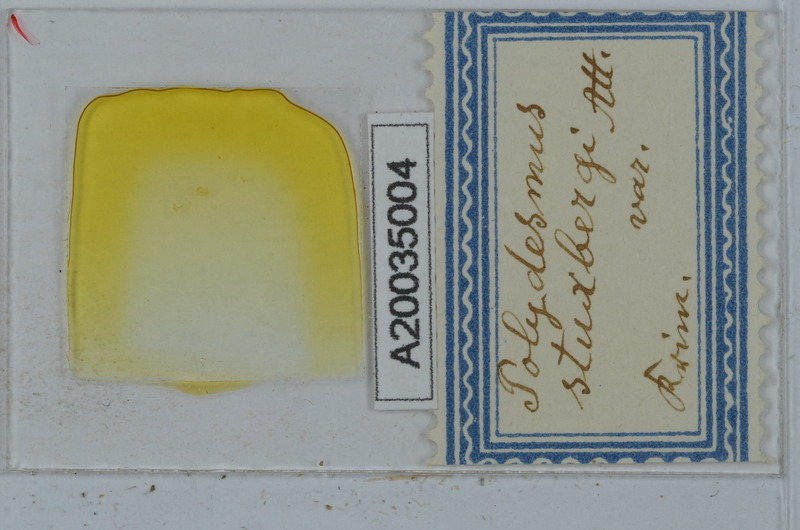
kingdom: Animalia
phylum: Arthropoda
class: Diplopoda
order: Polydesmida
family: Polydesmidae
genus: Polydesmus
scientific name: Polydesmus stuxbergi
